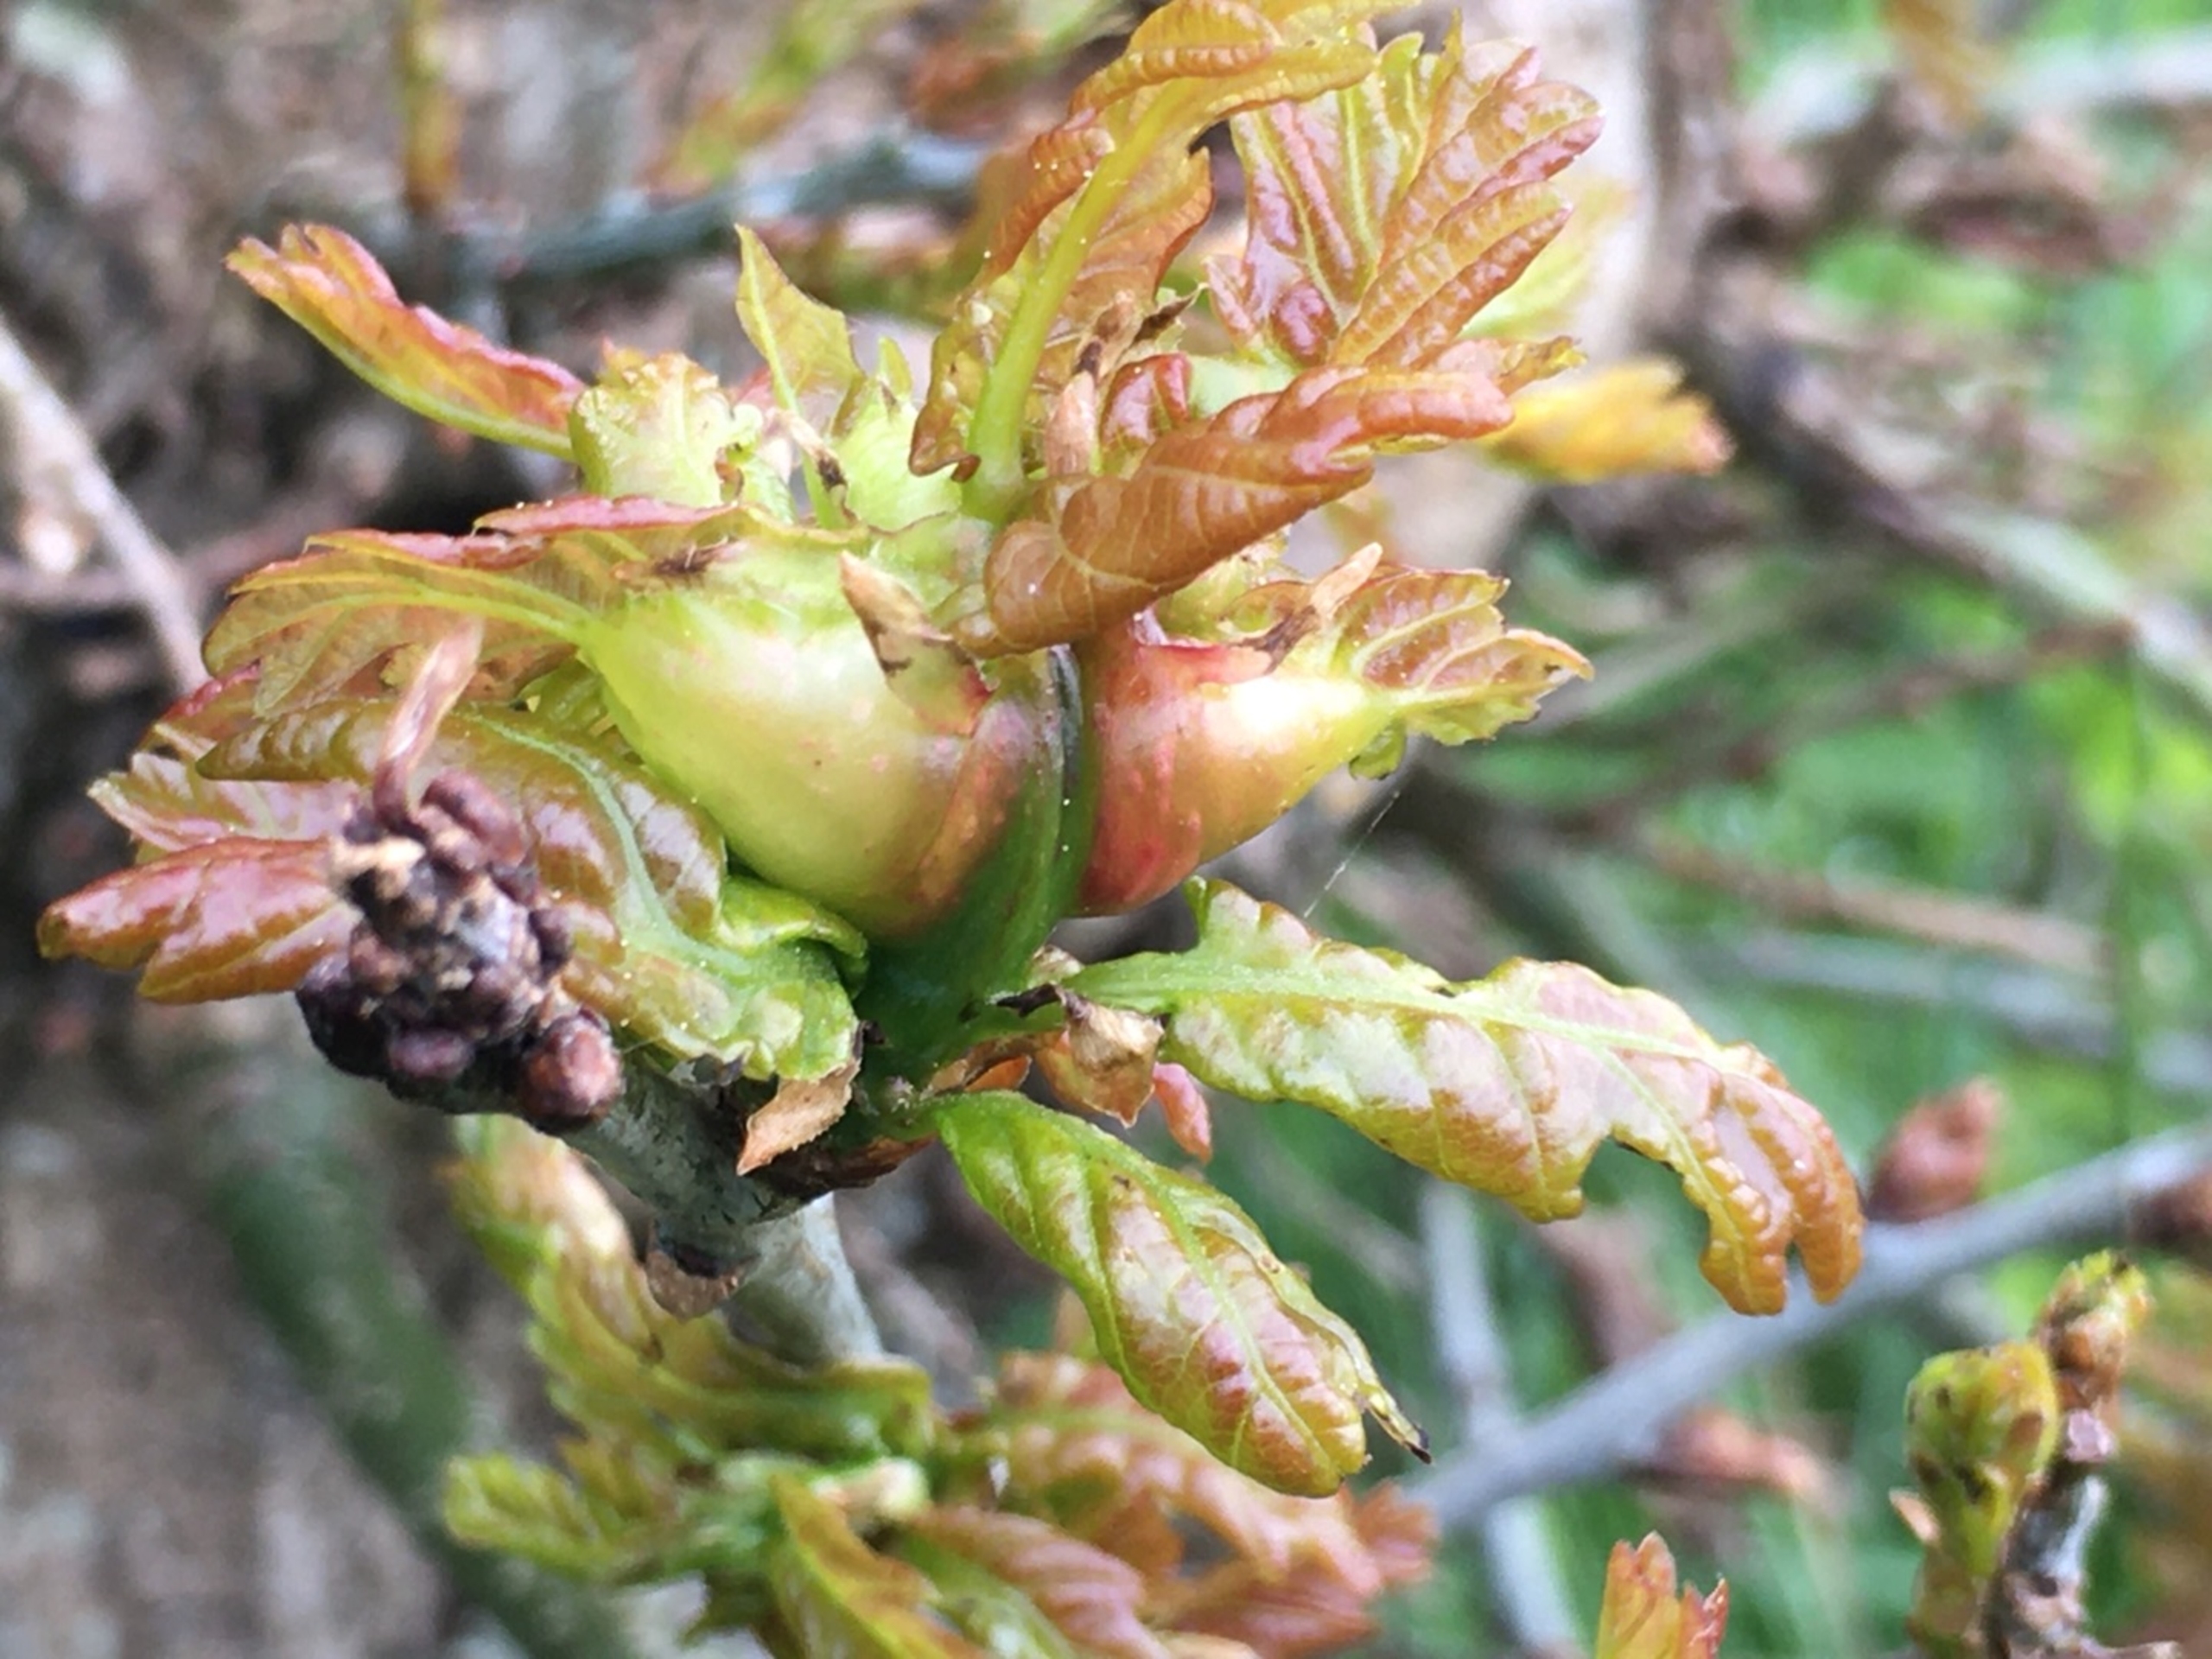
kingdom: Animalia
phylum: Arthropoda
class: Insecta
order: Hymenoptera
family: Cynipidae
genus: Andricus
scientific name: Andricus curvator
